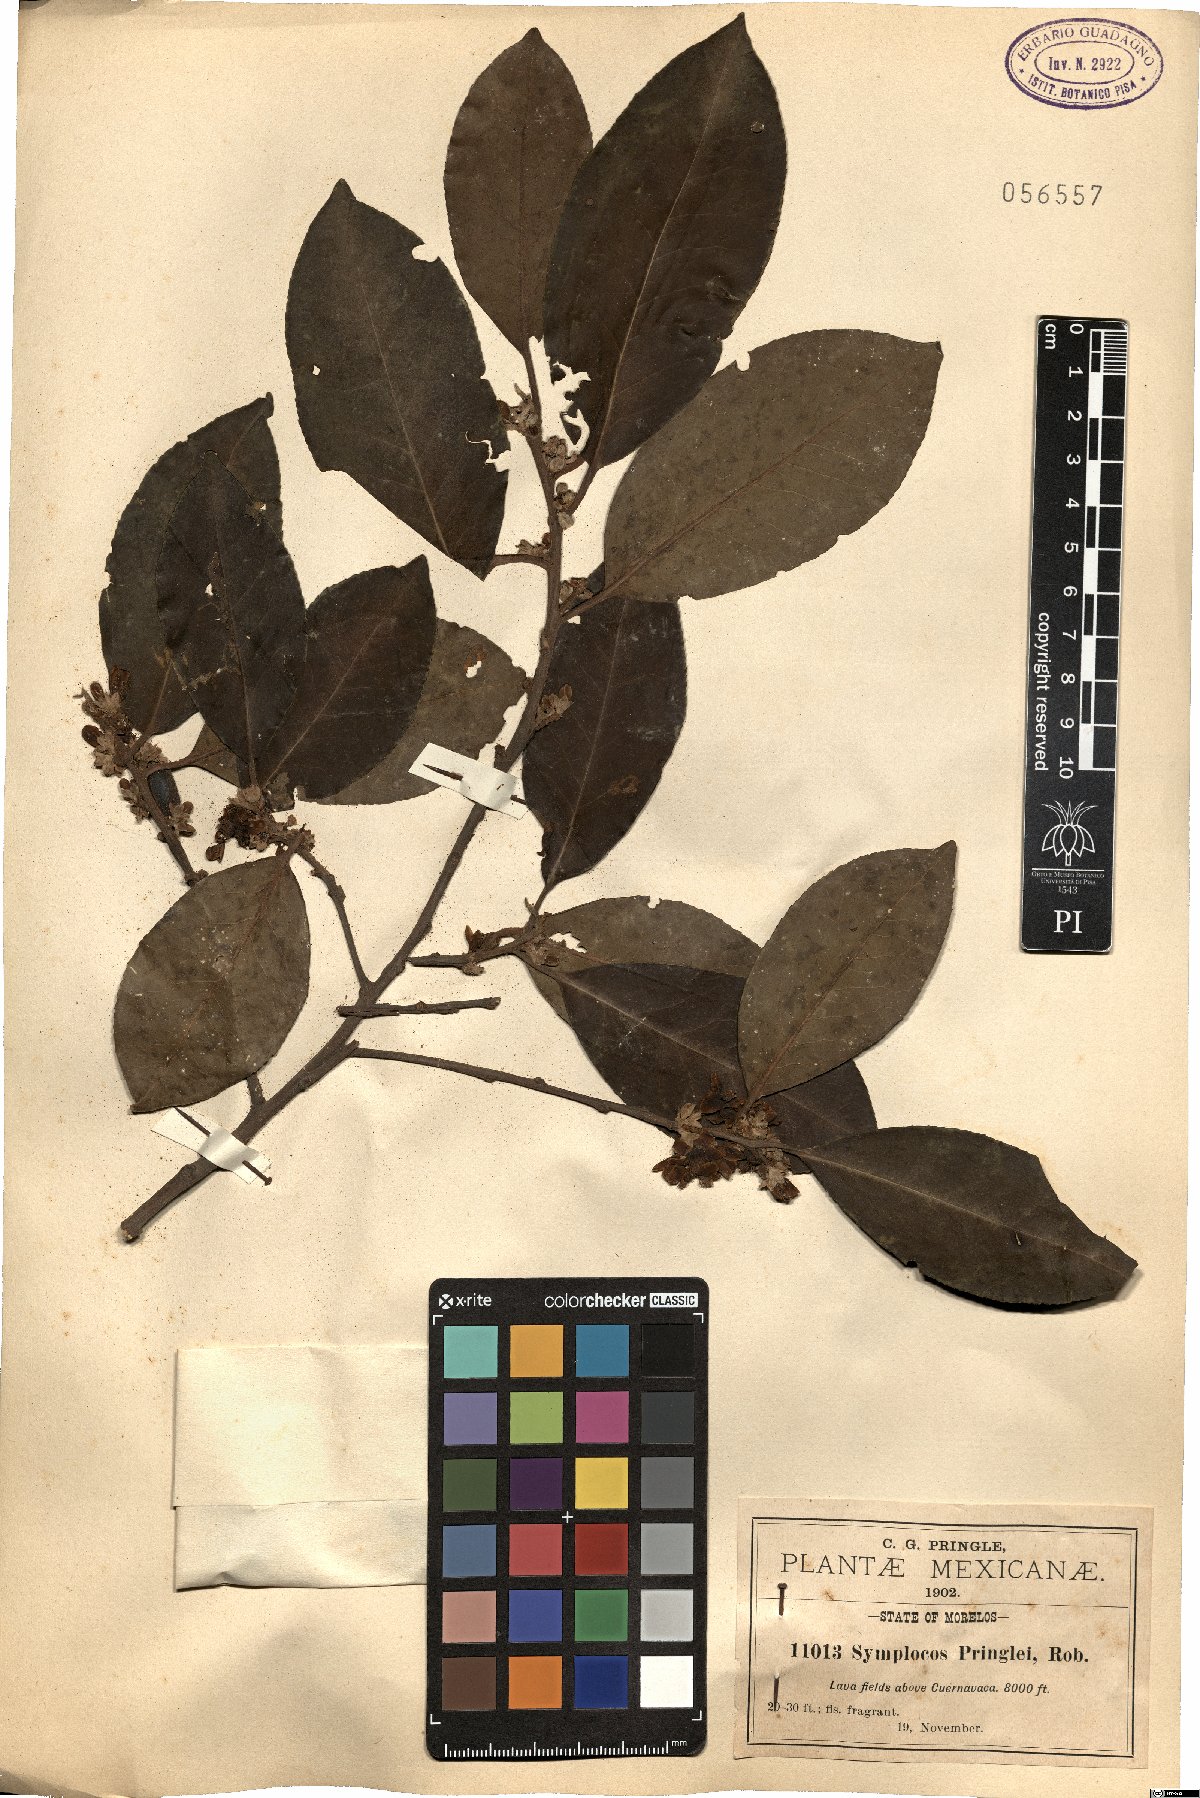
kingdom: Plantae
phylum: Tracheophyta
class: Magnoliopsida
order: Ericales
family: Symplocaceae
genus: Symplocos
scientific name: Symplocos citrea
